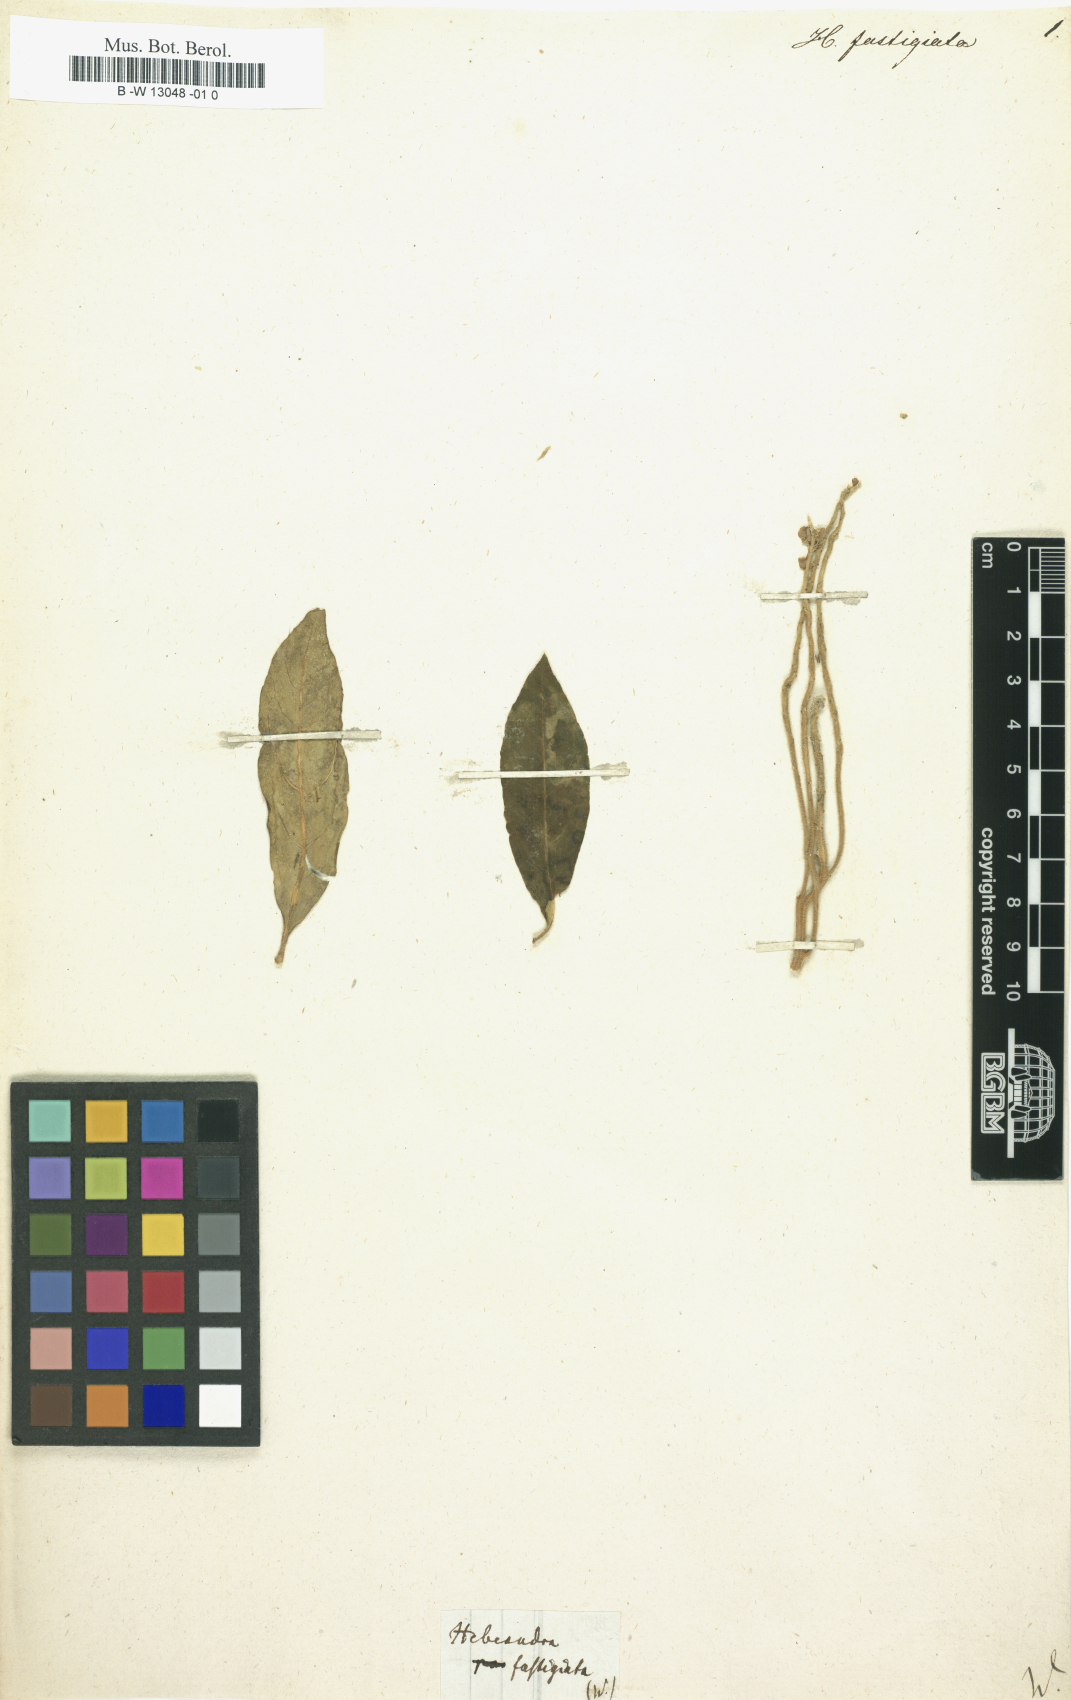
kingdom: Plantae
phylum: Tracheophyta
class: Magnoliopsida
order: Fabales
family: Polygalaceae
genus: Monnina
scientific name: Monnina fastigiata
